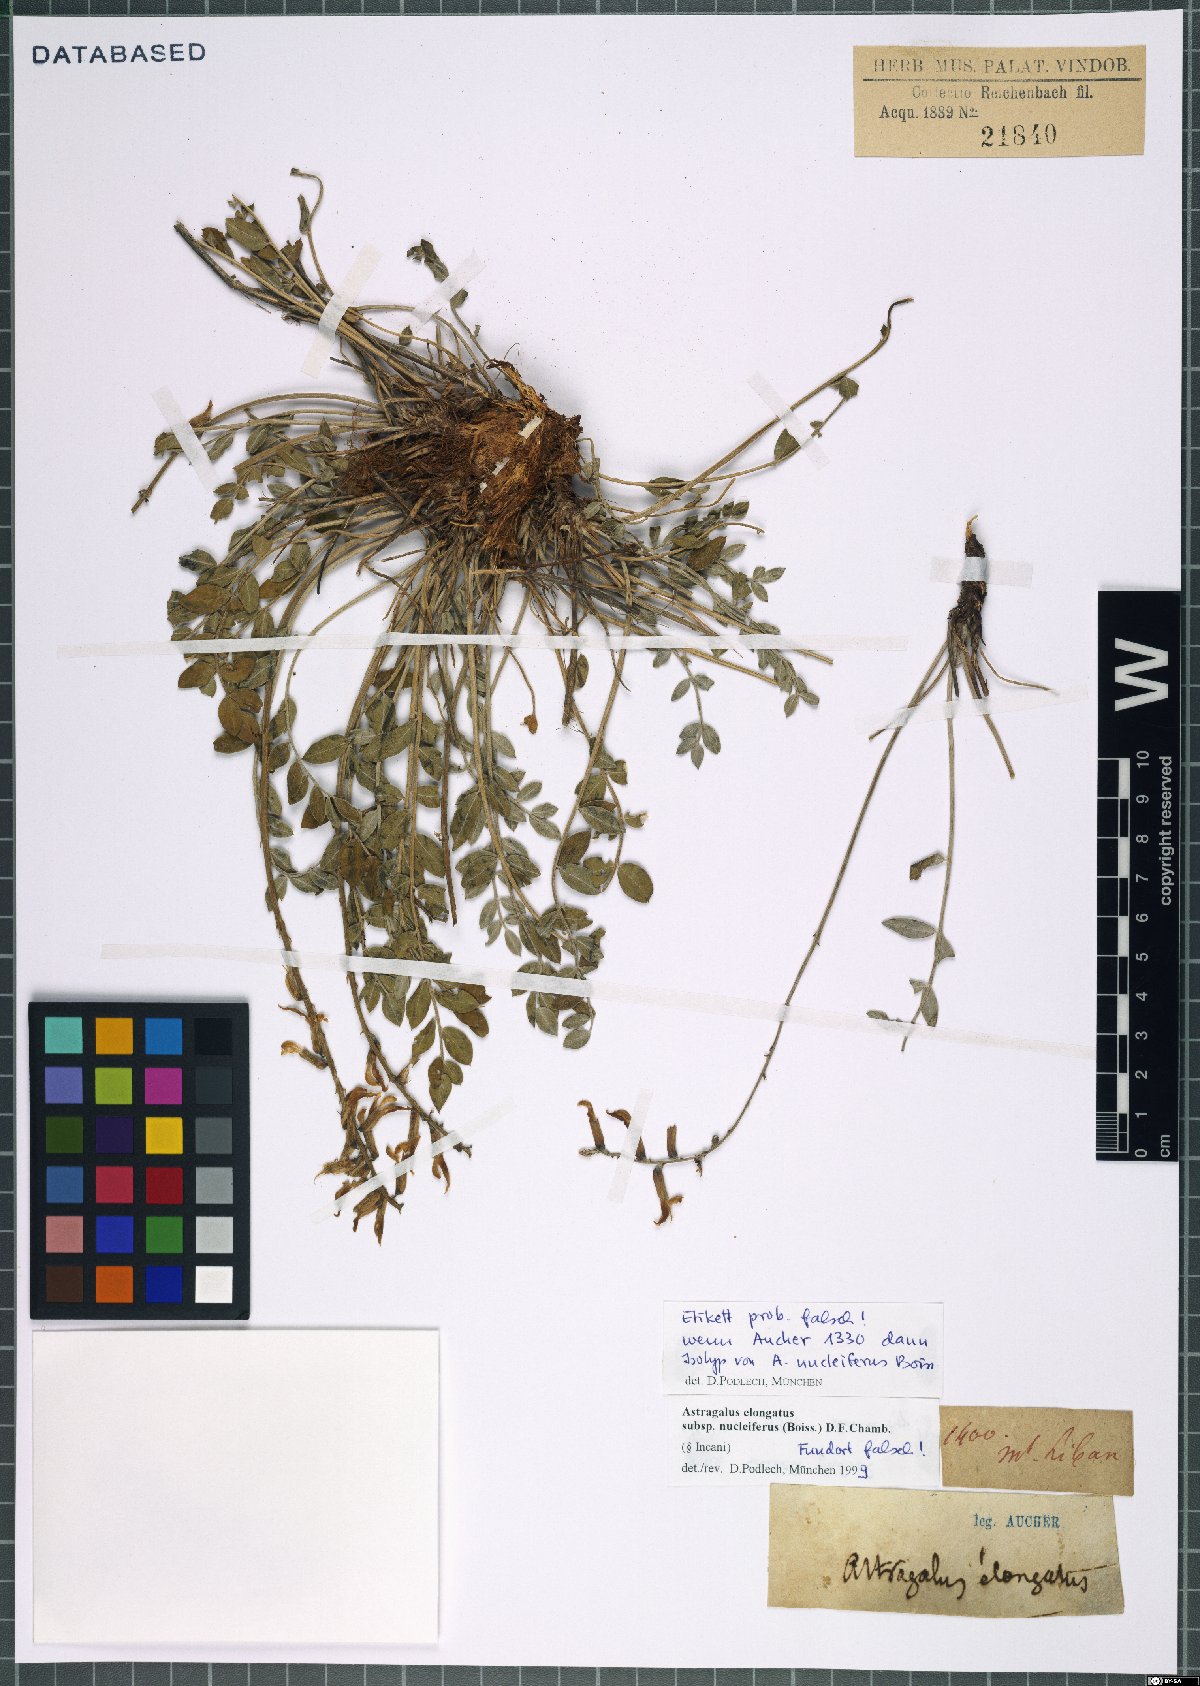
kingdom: Plantae
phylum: Tracheophyta
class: Magnoliopsida
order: Fabales
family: Fabaceae
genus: Astragalus
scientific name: Astragalus elongatus
